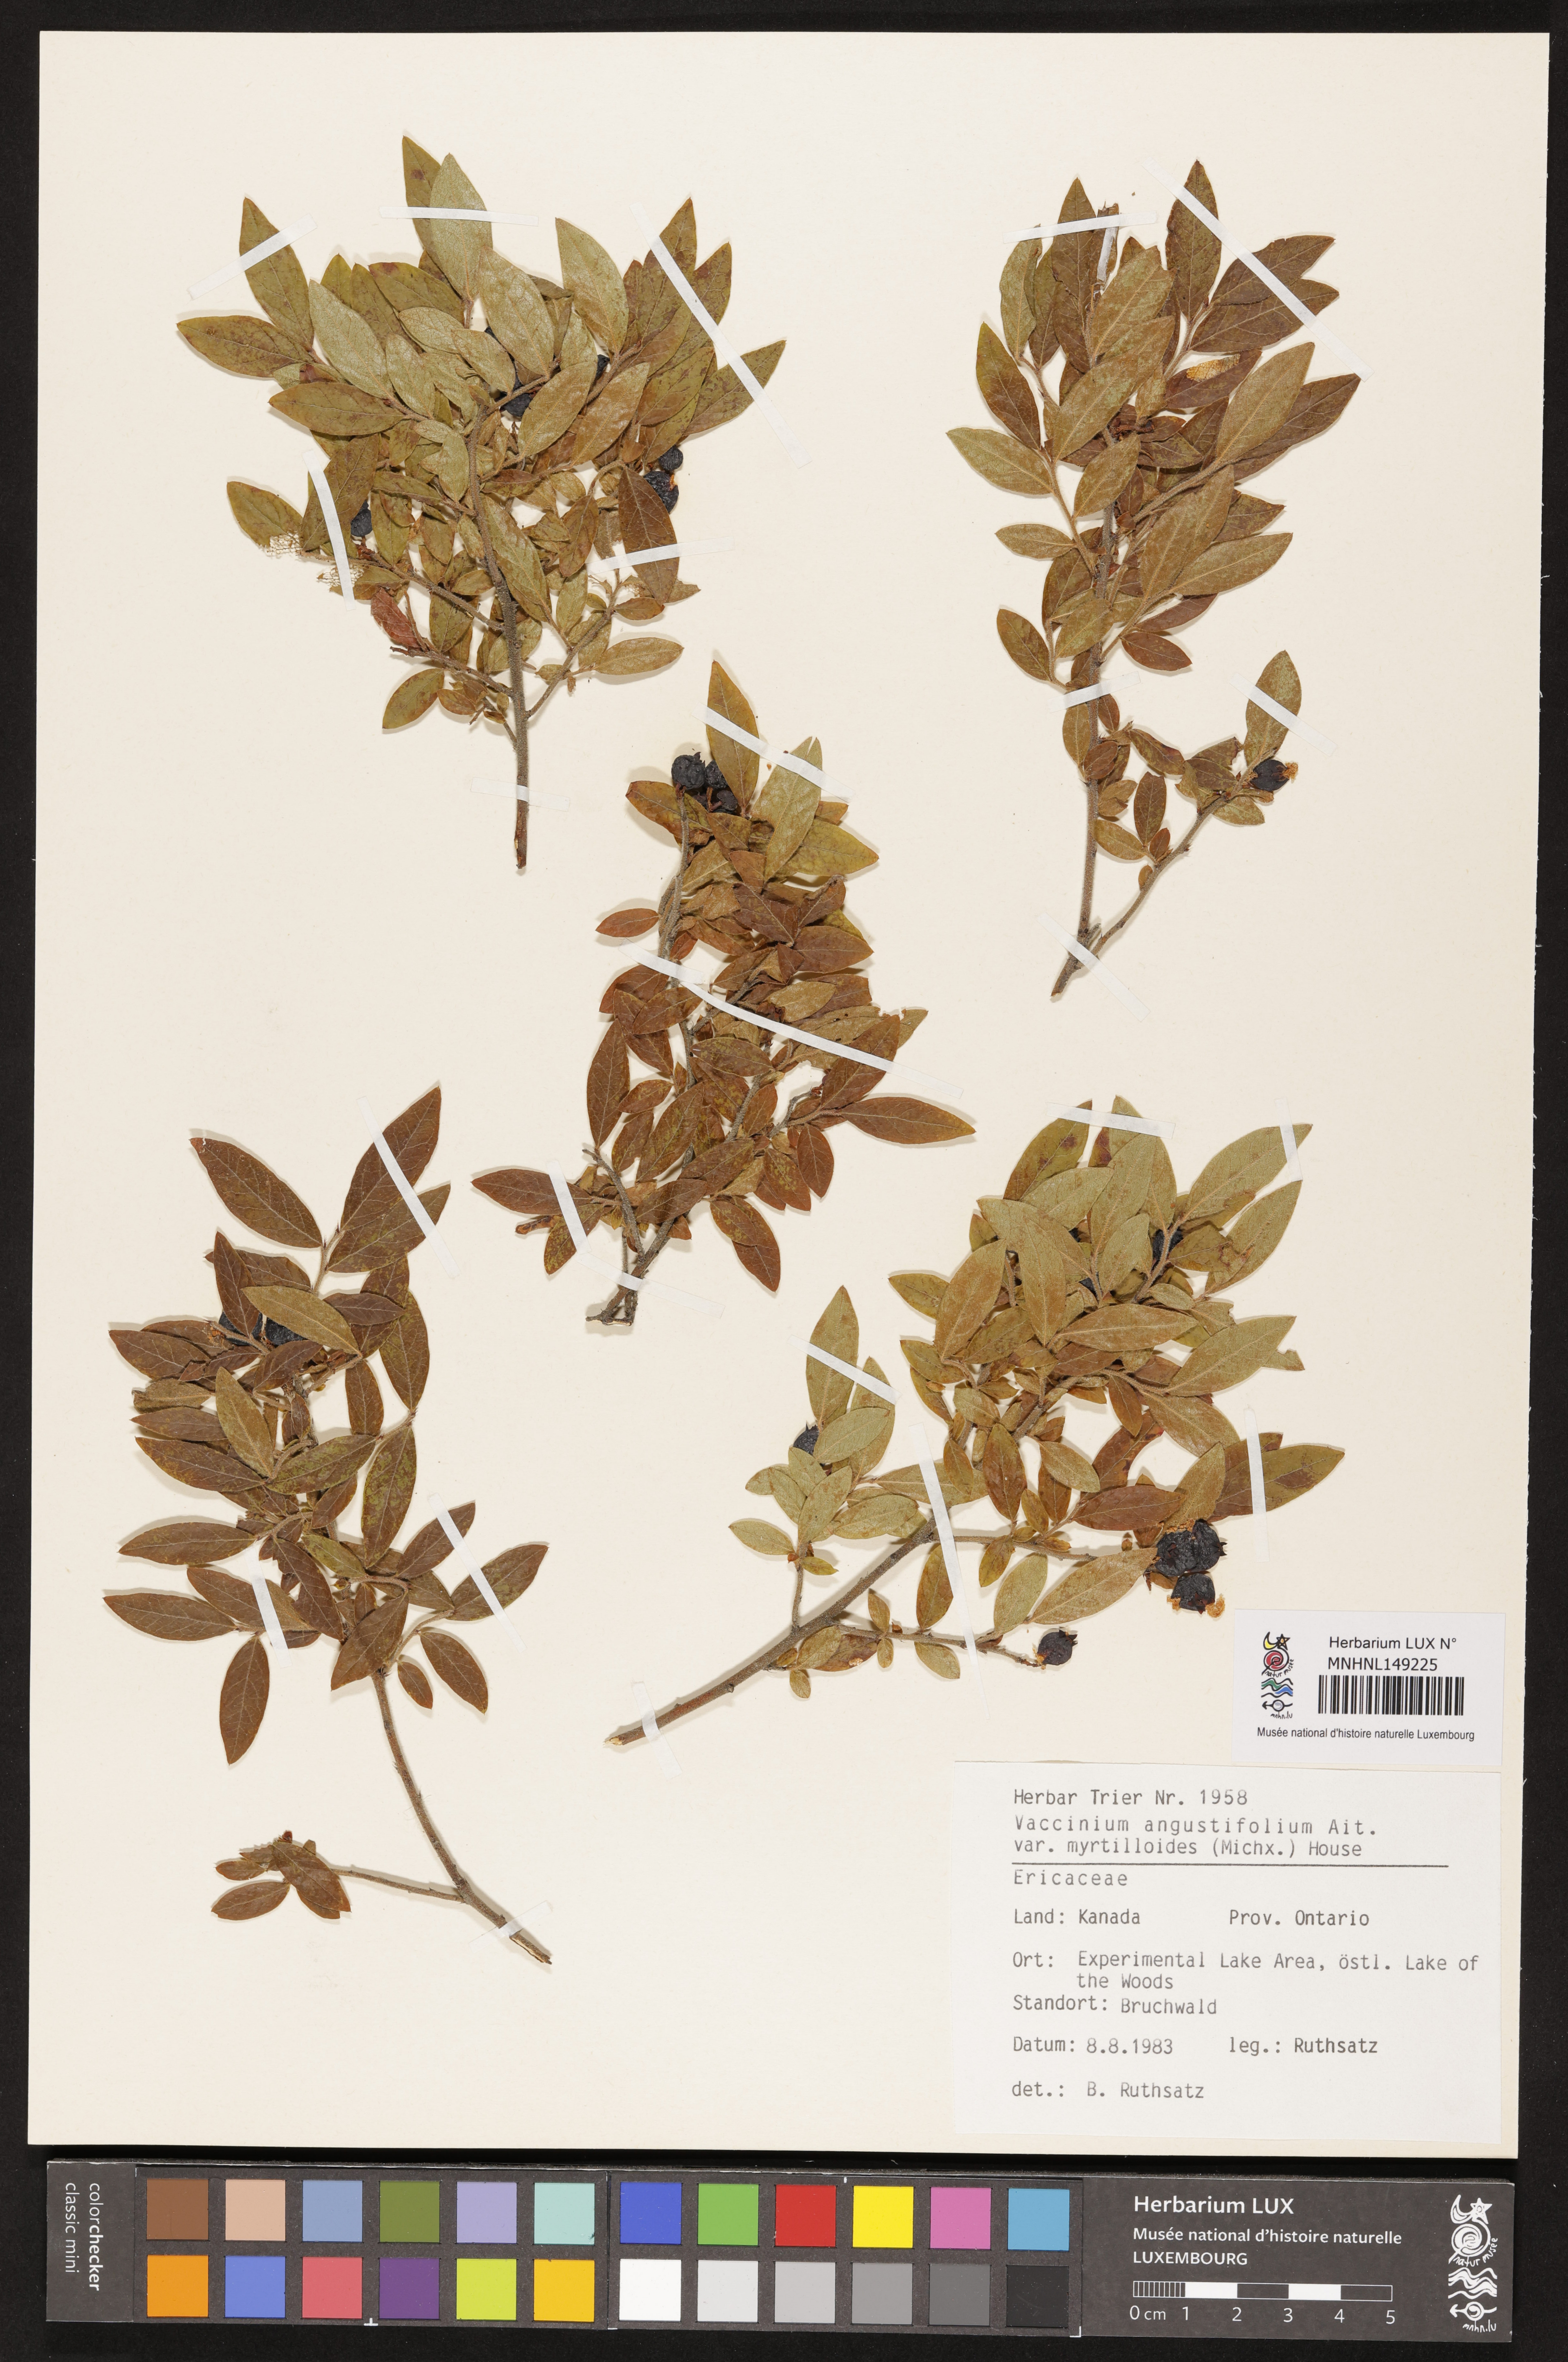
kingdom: Plantae
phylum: Tracheophyta
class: Magnoliopsida
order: Ericales
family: Ericaceae
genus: Vaccinium
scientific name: Vaccinium myrtilloides
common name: Canada blueberry
